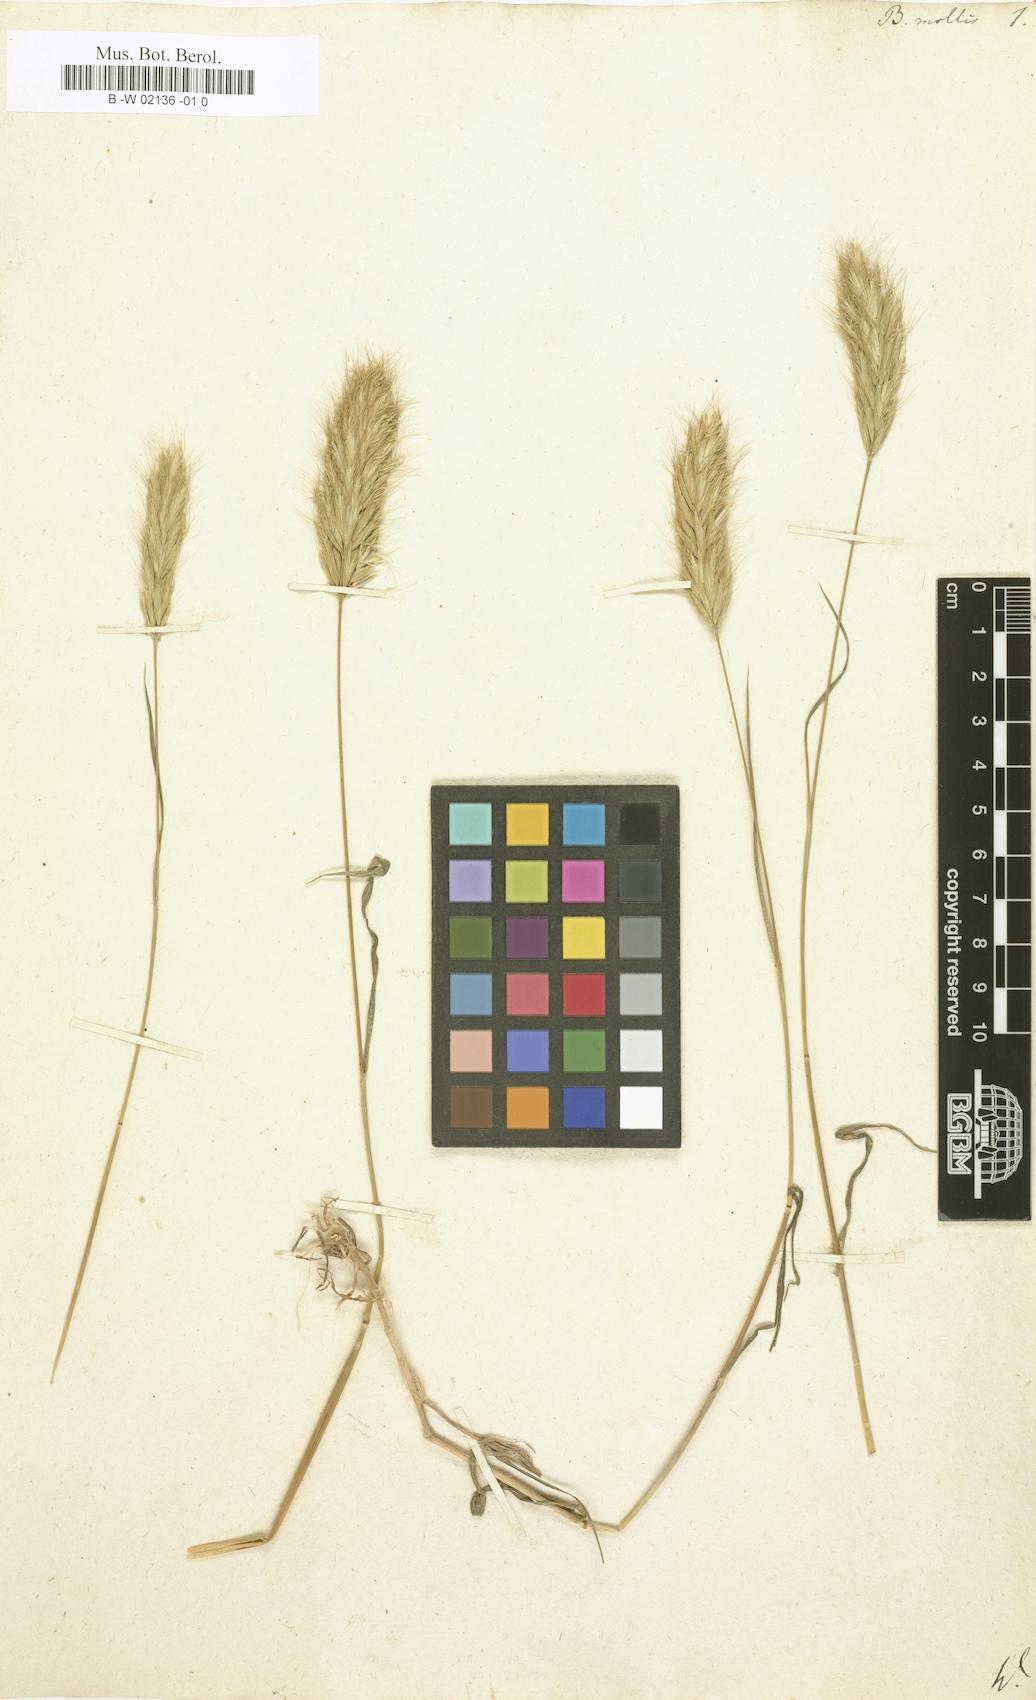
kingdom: Plantae
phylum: Tracheophyta
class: Liliopsida
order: Poales
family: Poaceae
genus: Bromus
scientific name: Bromus hordeaceus
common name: Soft brome
